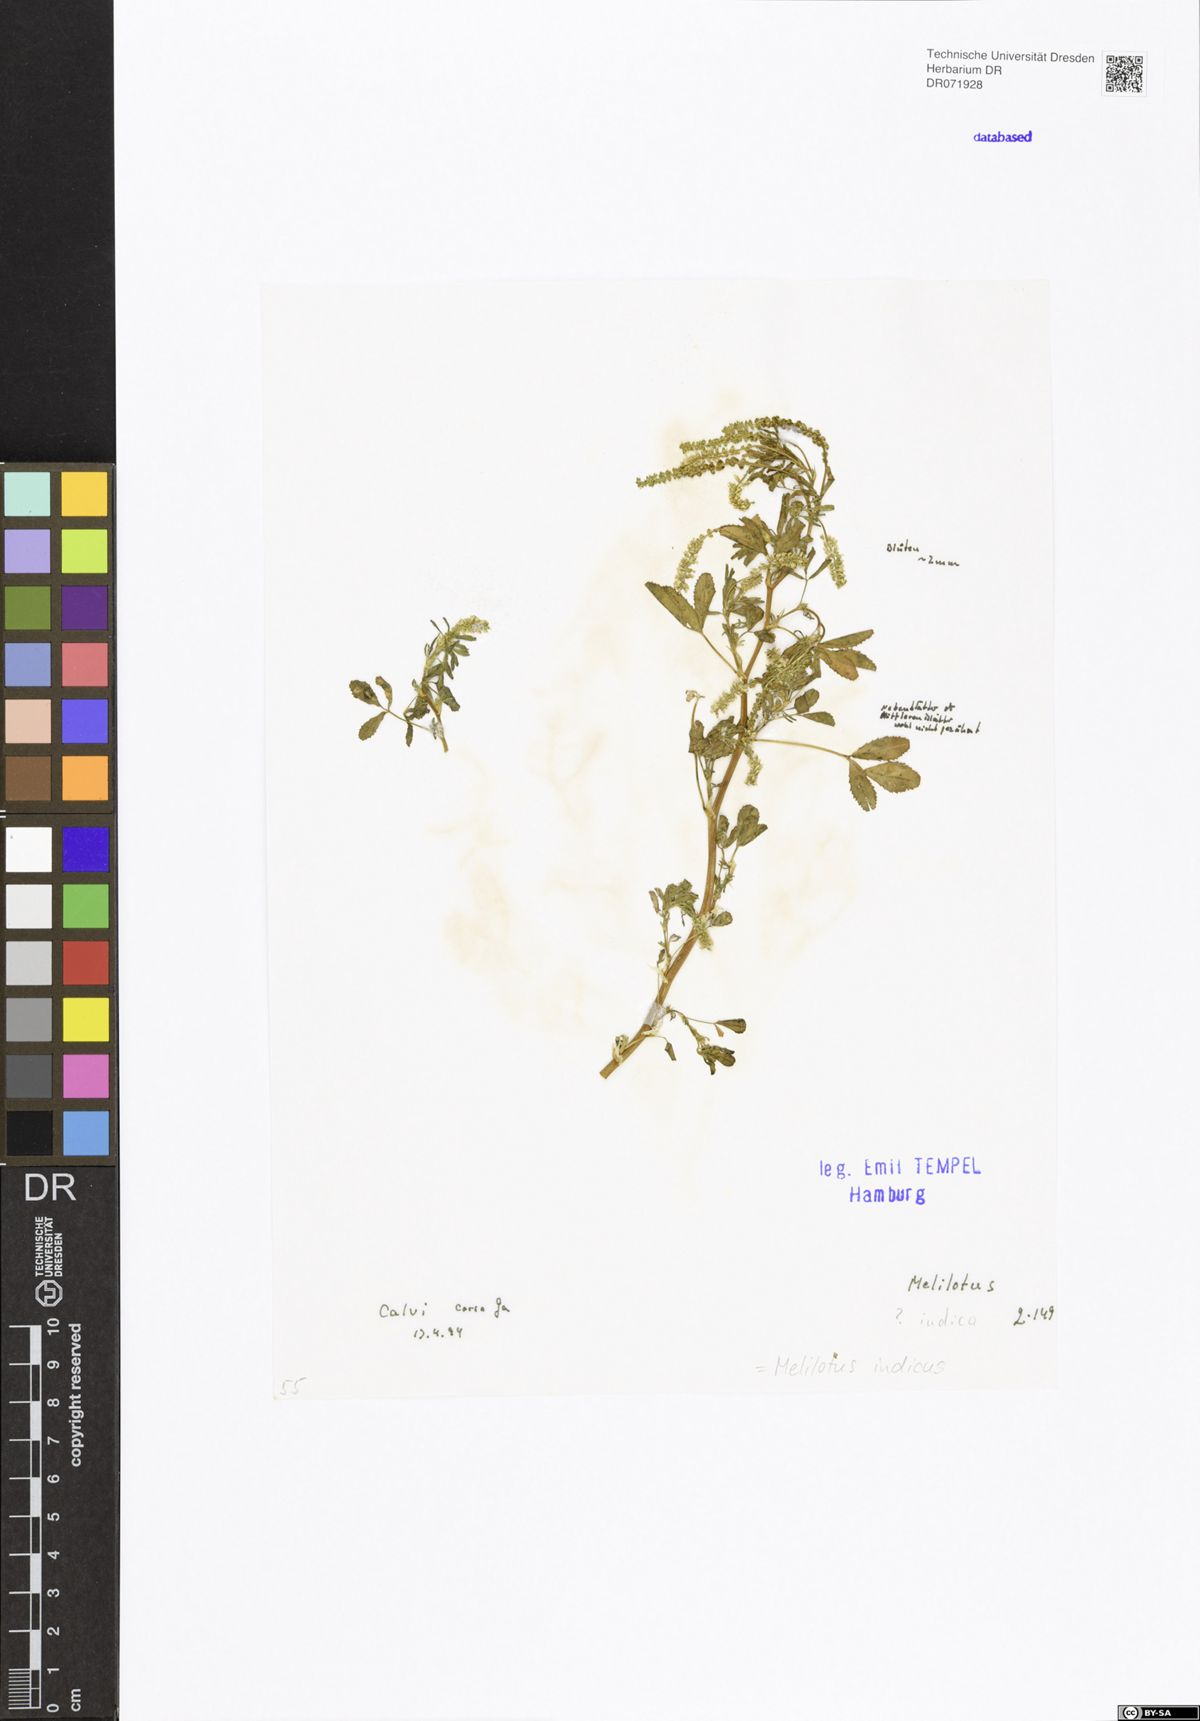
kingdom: Plantae
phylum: Tracheophyta
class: Magnoliopsida
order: Fabales
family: Fabaceae
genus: Melilotus
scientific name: Melilotus indicus
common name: Small melilot
